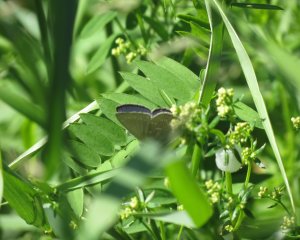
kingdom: Animalia
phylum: Arthropoda
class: Insecta
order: Lepidoptera
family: Lycaenidae
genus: Glaucopsyche
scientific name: Glaucopsyche lygdamus
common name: Silvery Blue
